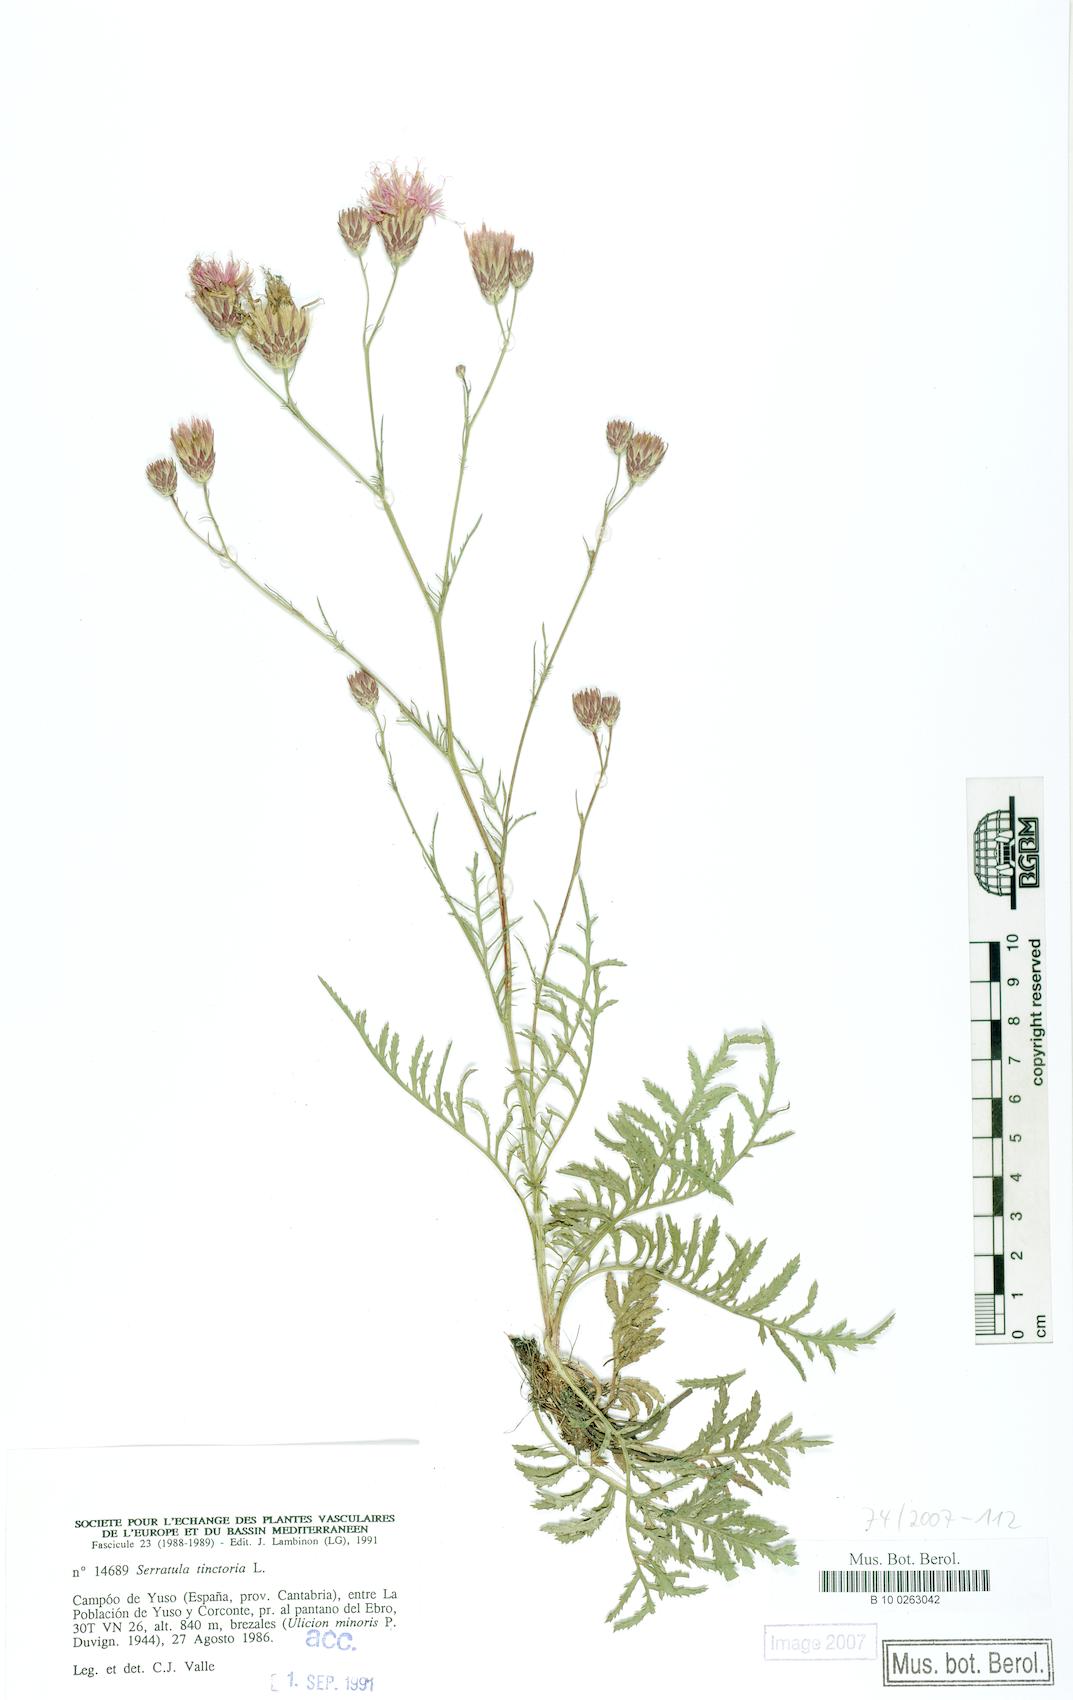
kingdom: Plantae
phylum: Tracheophyta
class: Magnoliopsida
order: Asterales
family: Asteraceae
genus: Serratula
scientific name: Serratula tinctoria
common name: Saw-wort
